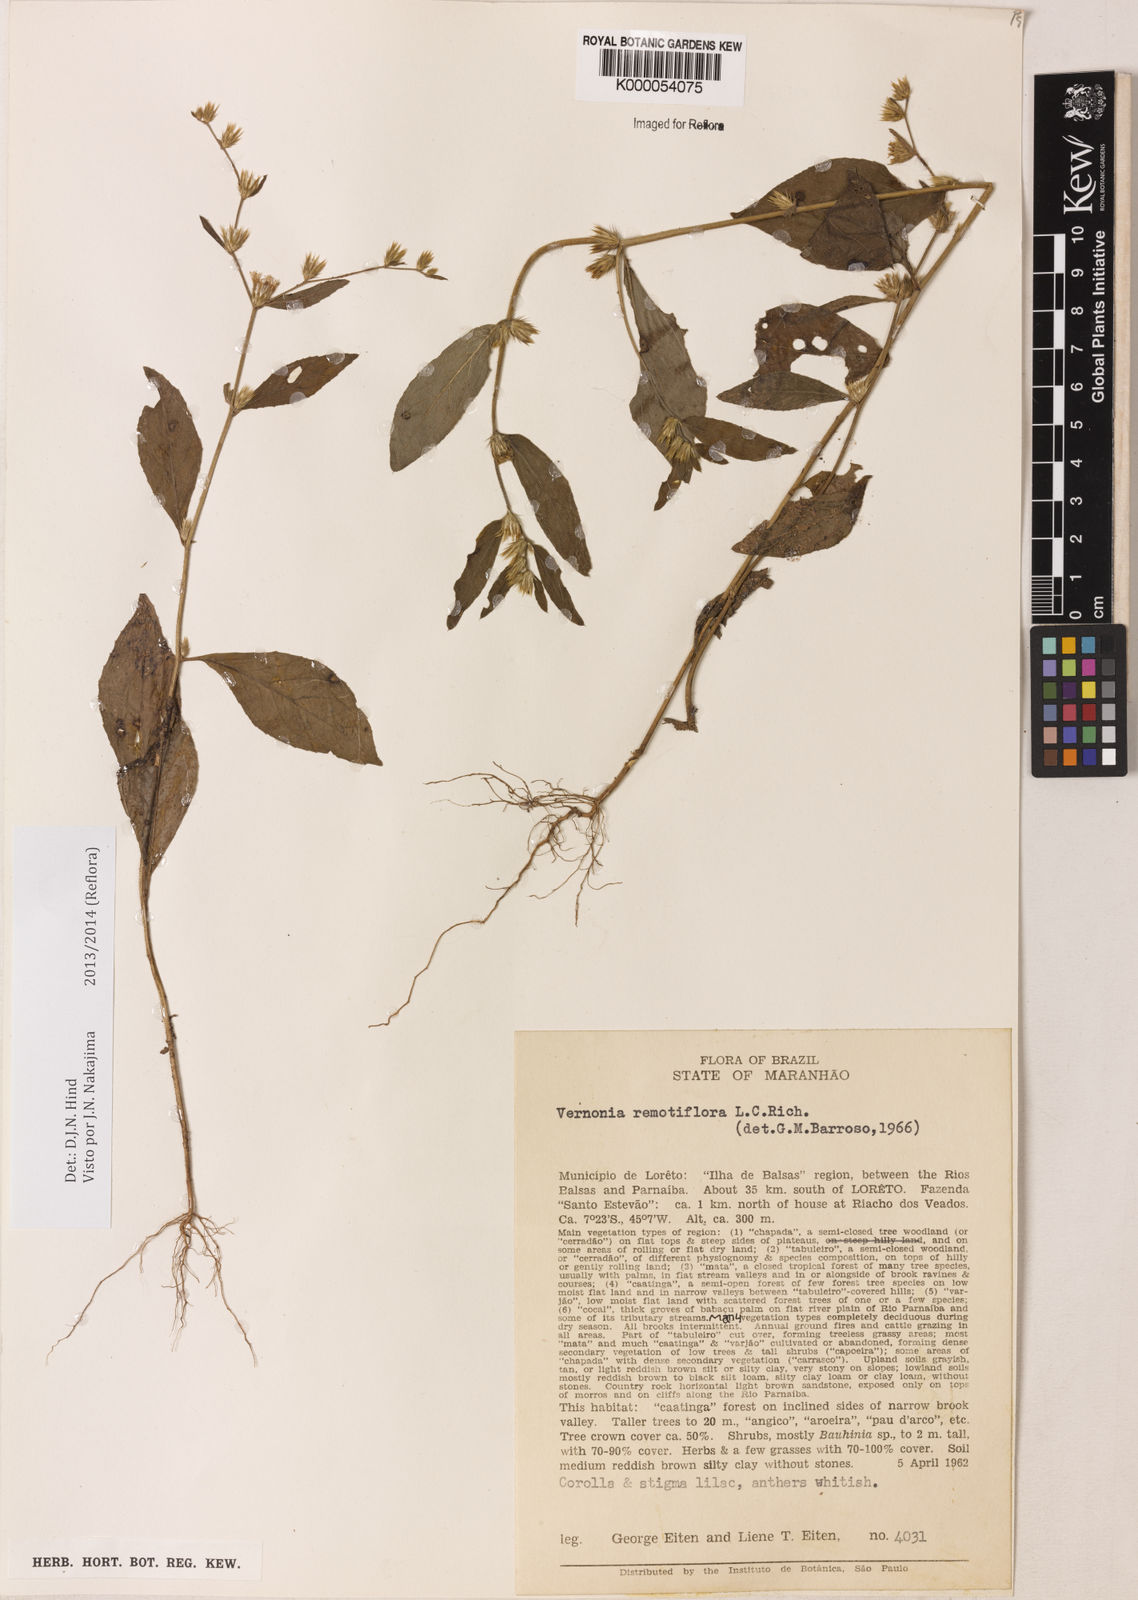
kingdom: Plantae
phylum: Tracheophyta
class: Magnoliopsida
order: Asterales
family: Asteraceae
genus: Lepidaploa
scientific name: Lepidaploa remotiflora
